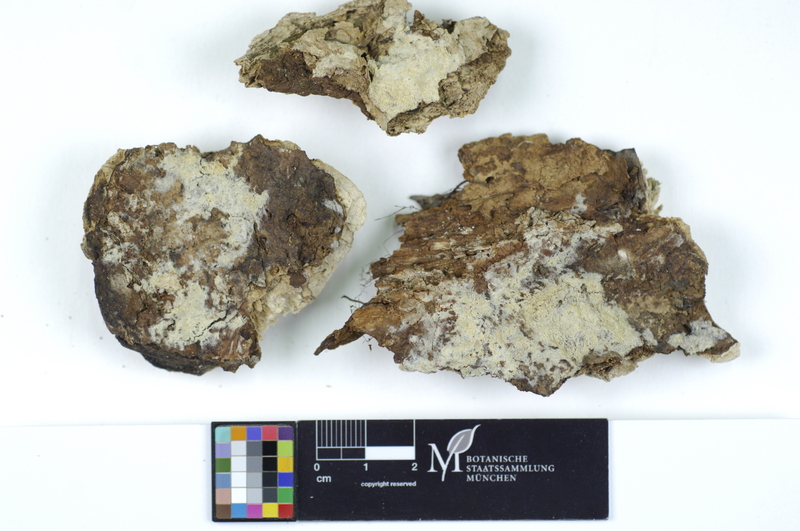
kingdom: Fungi
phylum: Basidiomycota
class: Agaricomycetes
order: Polyporales
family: Irpicaceae
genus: Ceriporia
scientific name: Ceriporia reticulata
